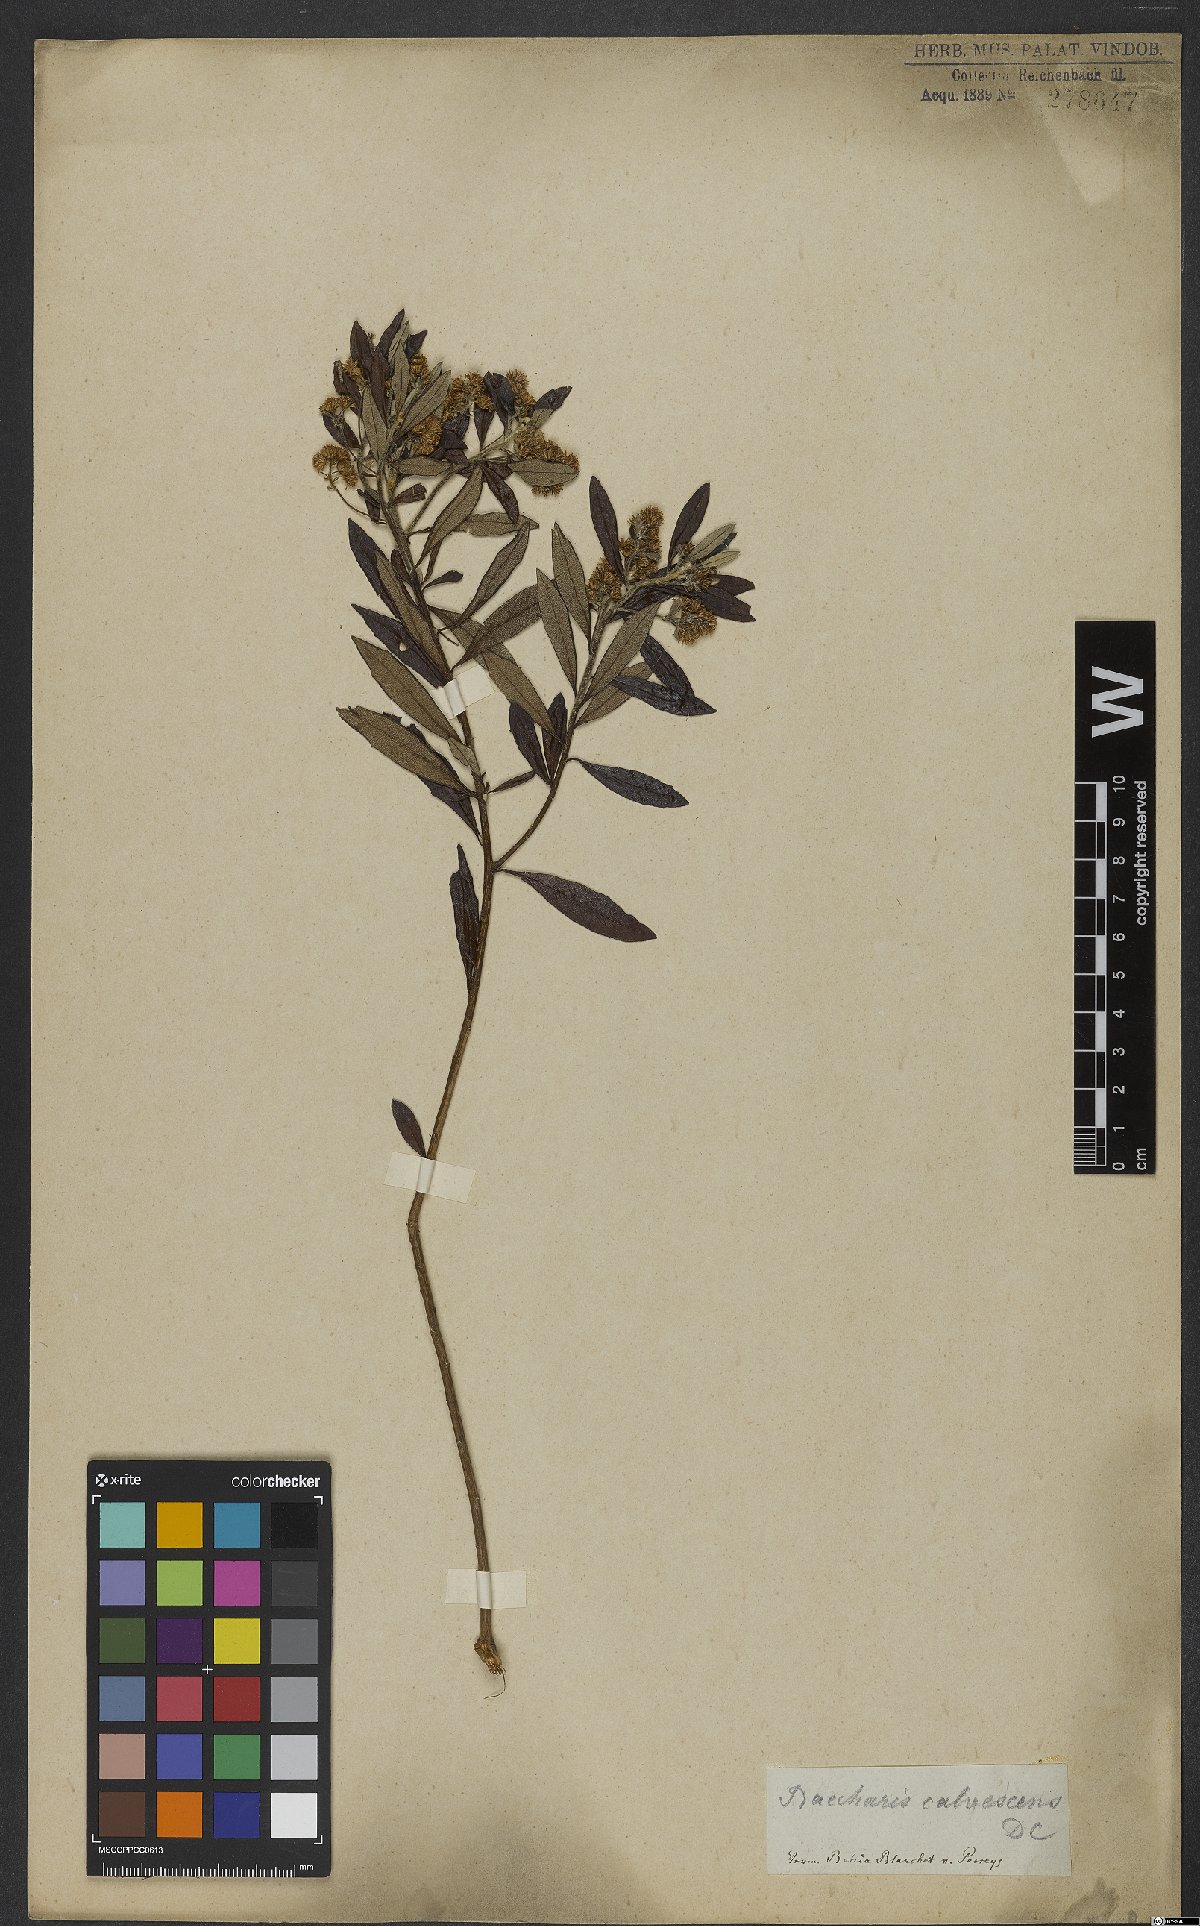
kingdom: Plantae
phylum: Tracheophyta
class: Magnoliopsida
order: Asterales
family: Asteraceae
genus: Baccharis
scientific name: Baccharis calvescens
